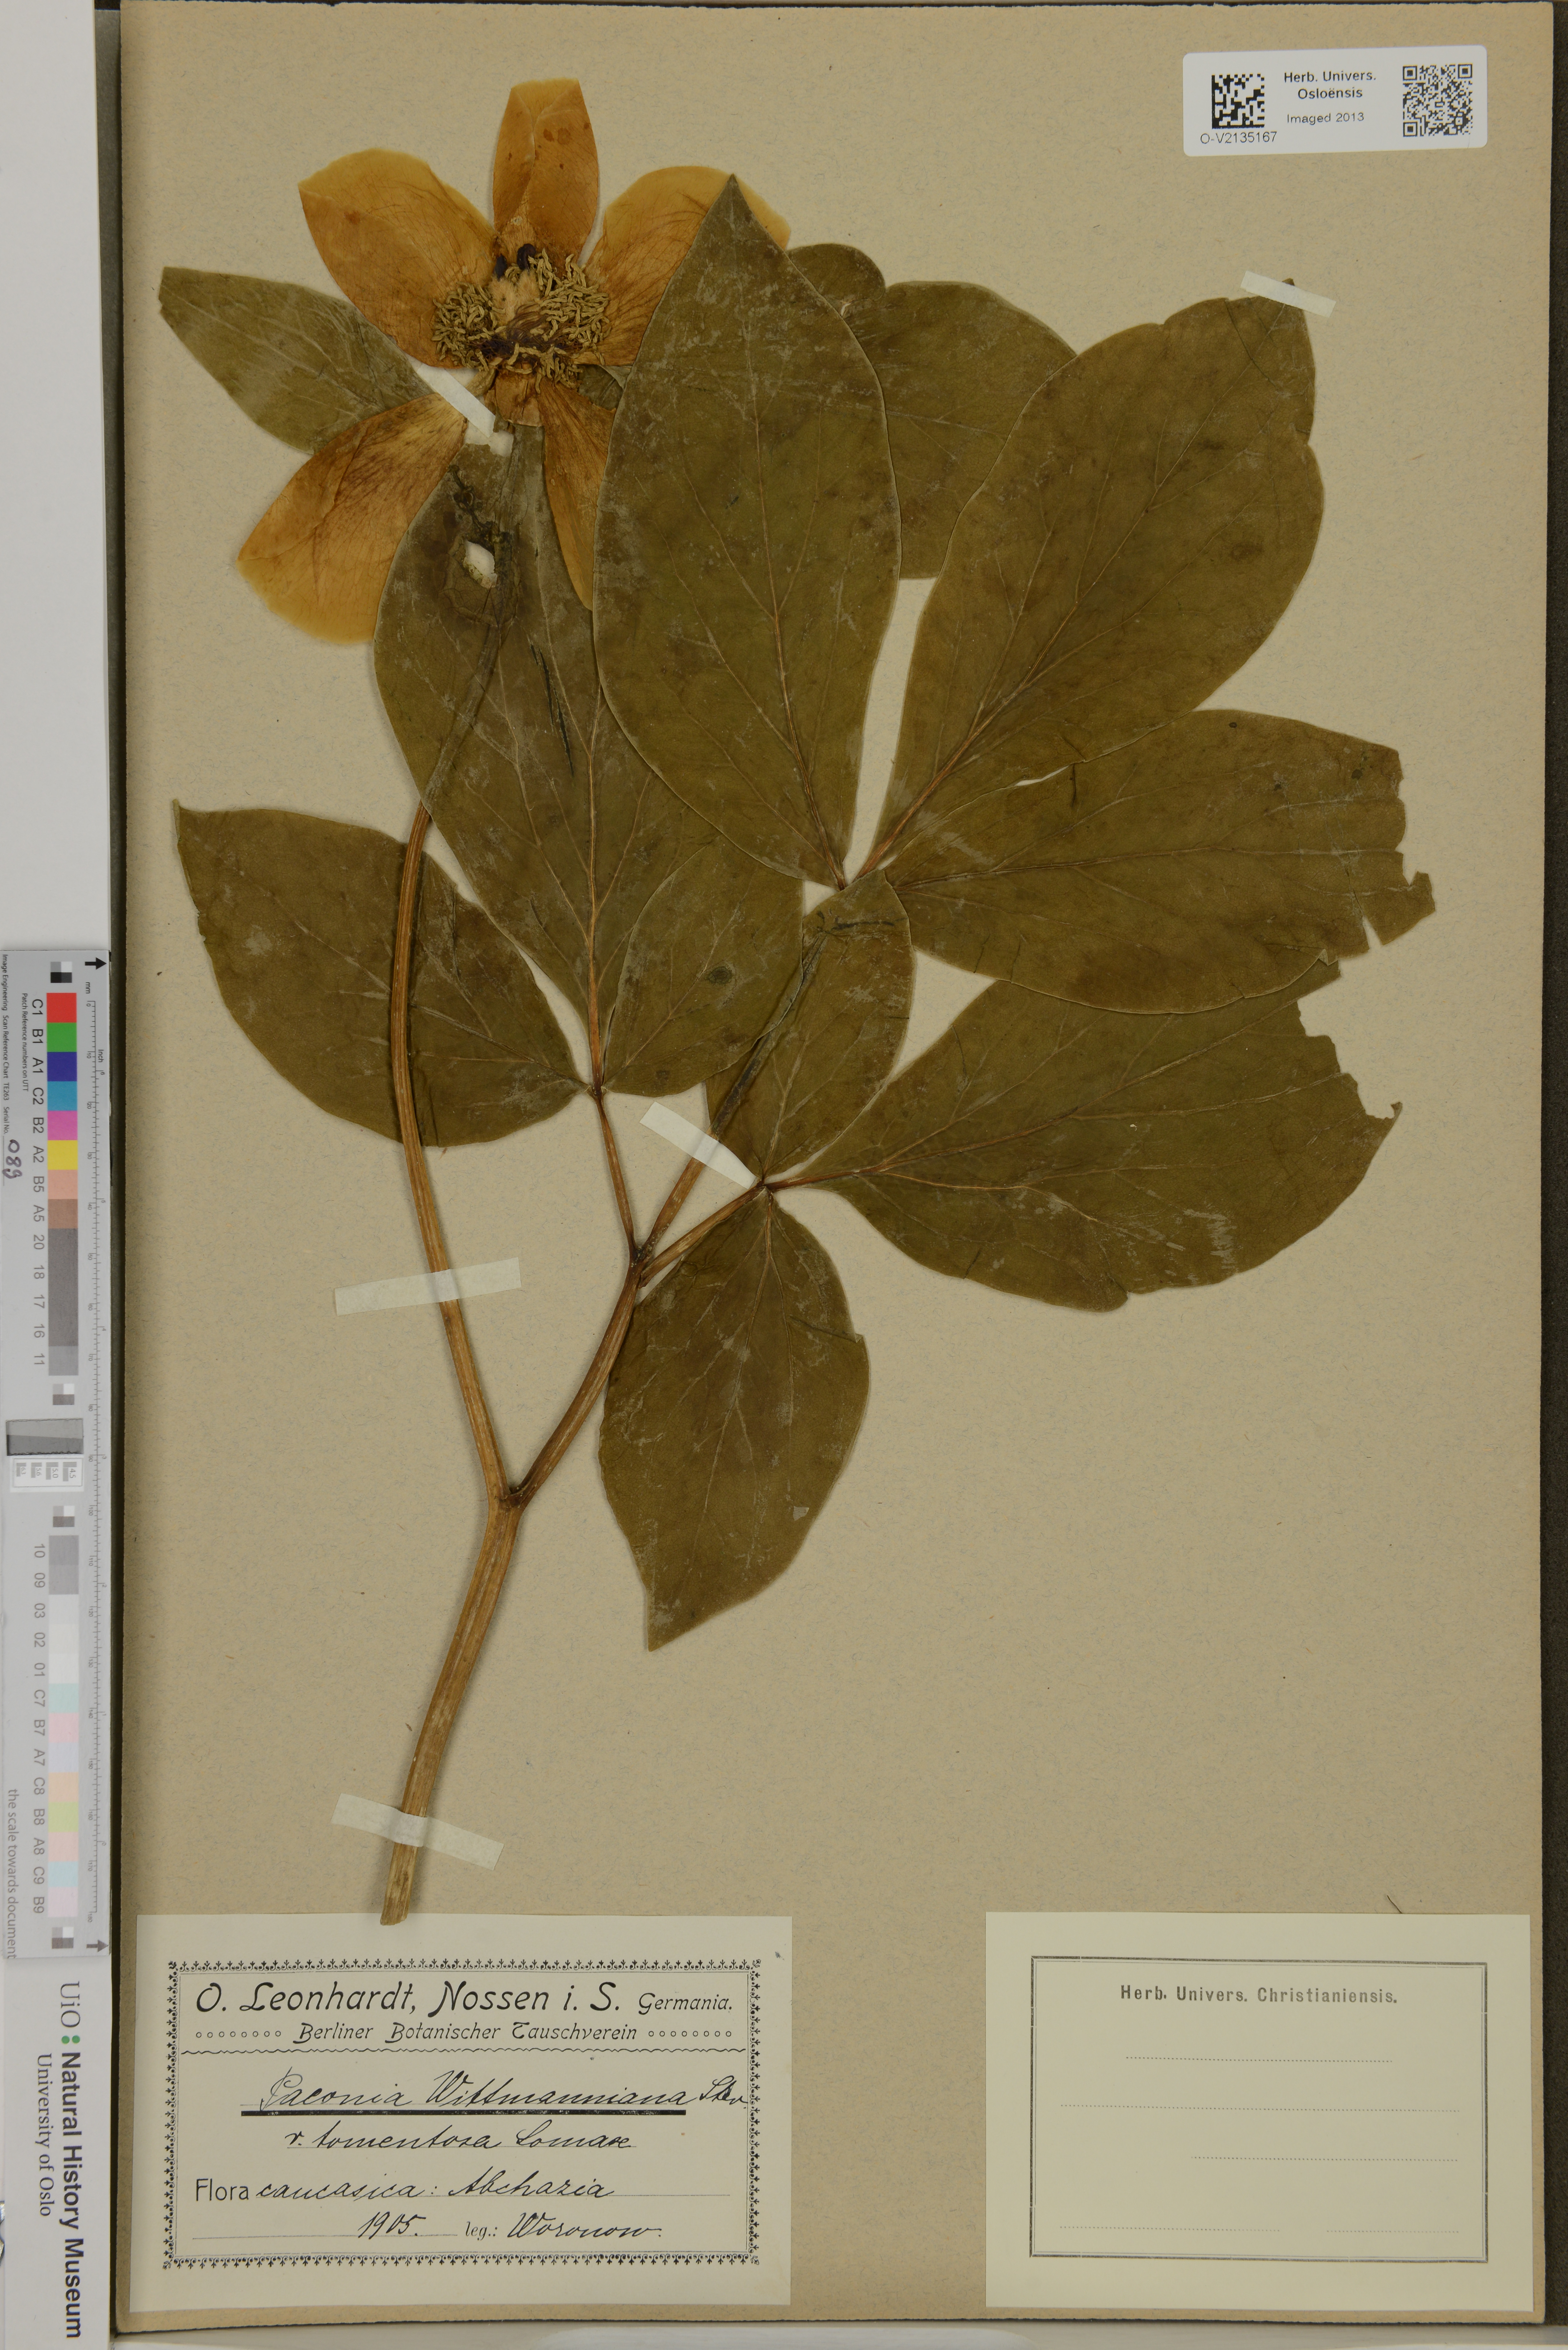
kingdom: Plantae
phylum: Tracheophyta
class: Magnoliopsida
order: Saxifragales
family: Paeoniaceae
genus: Paeonia
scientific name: Paeonia wittmanniana
